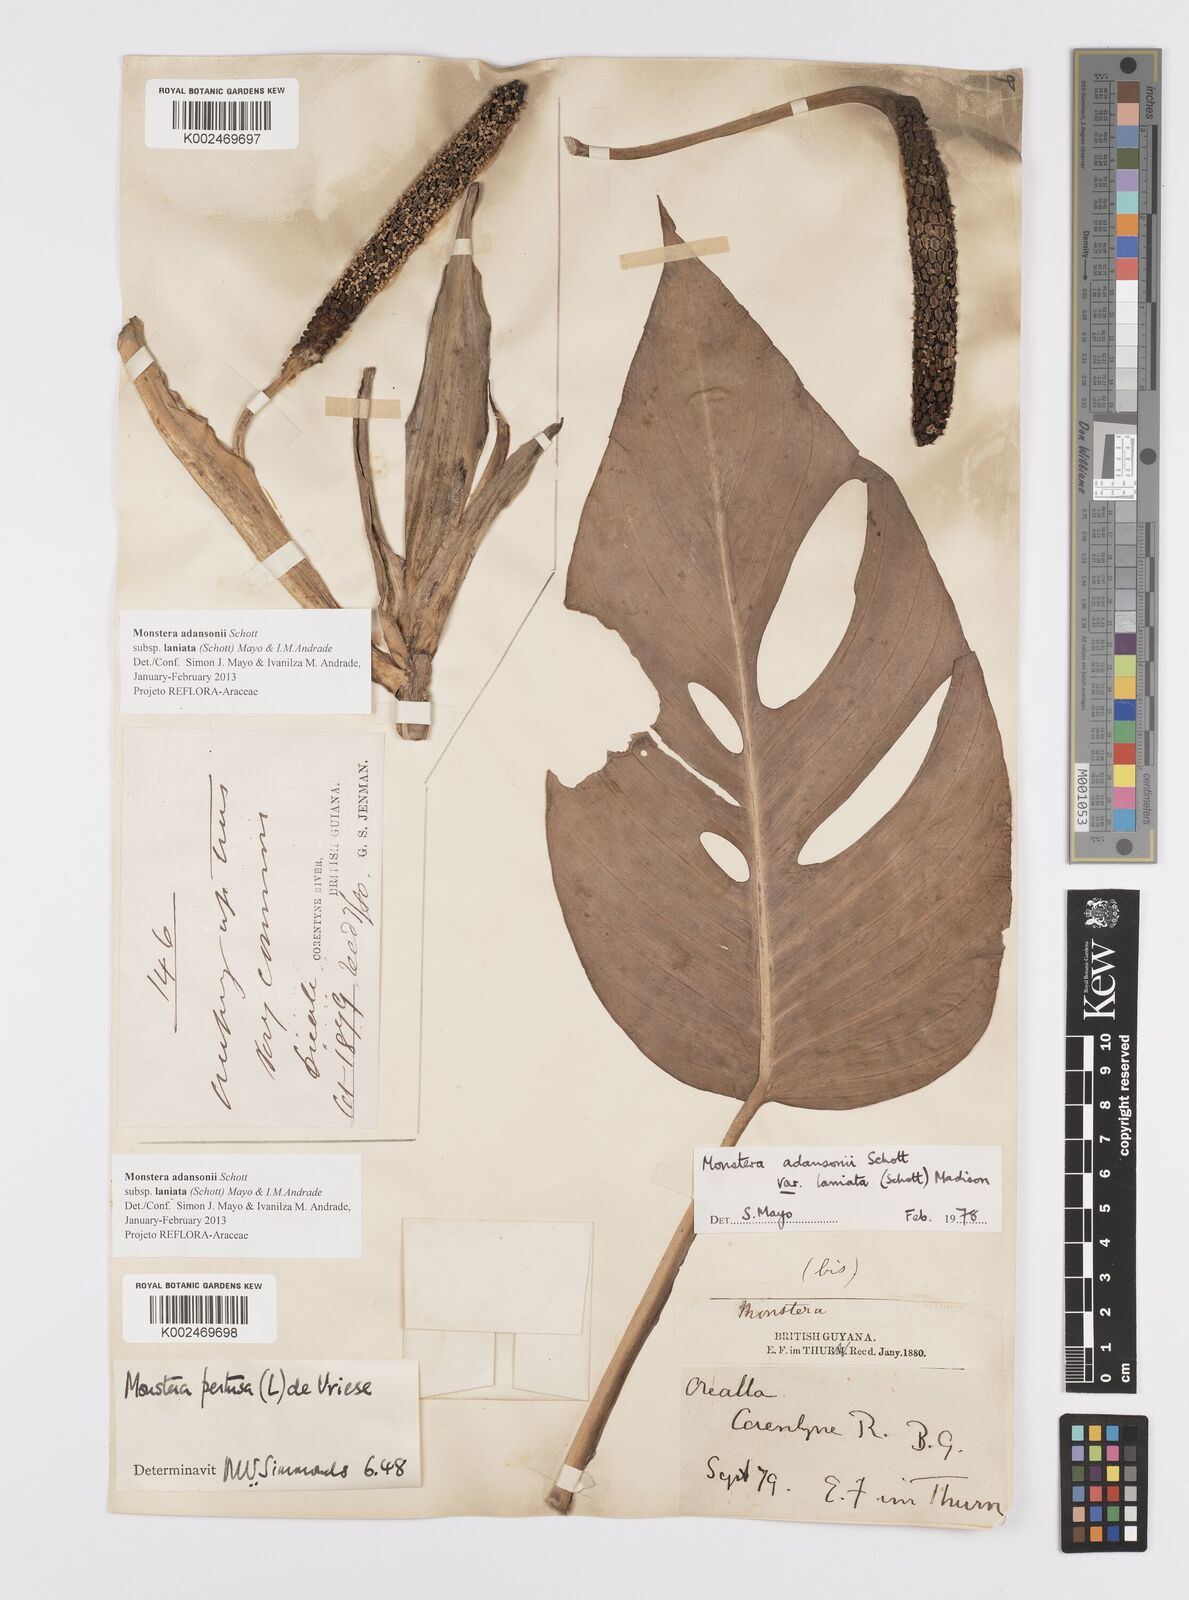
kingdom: Plantae
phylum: Tracheophyta
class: Liliopsida
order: Alismatales
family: Araceae
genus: Monstera
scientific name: Monstera adansonii
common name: Tarovine
